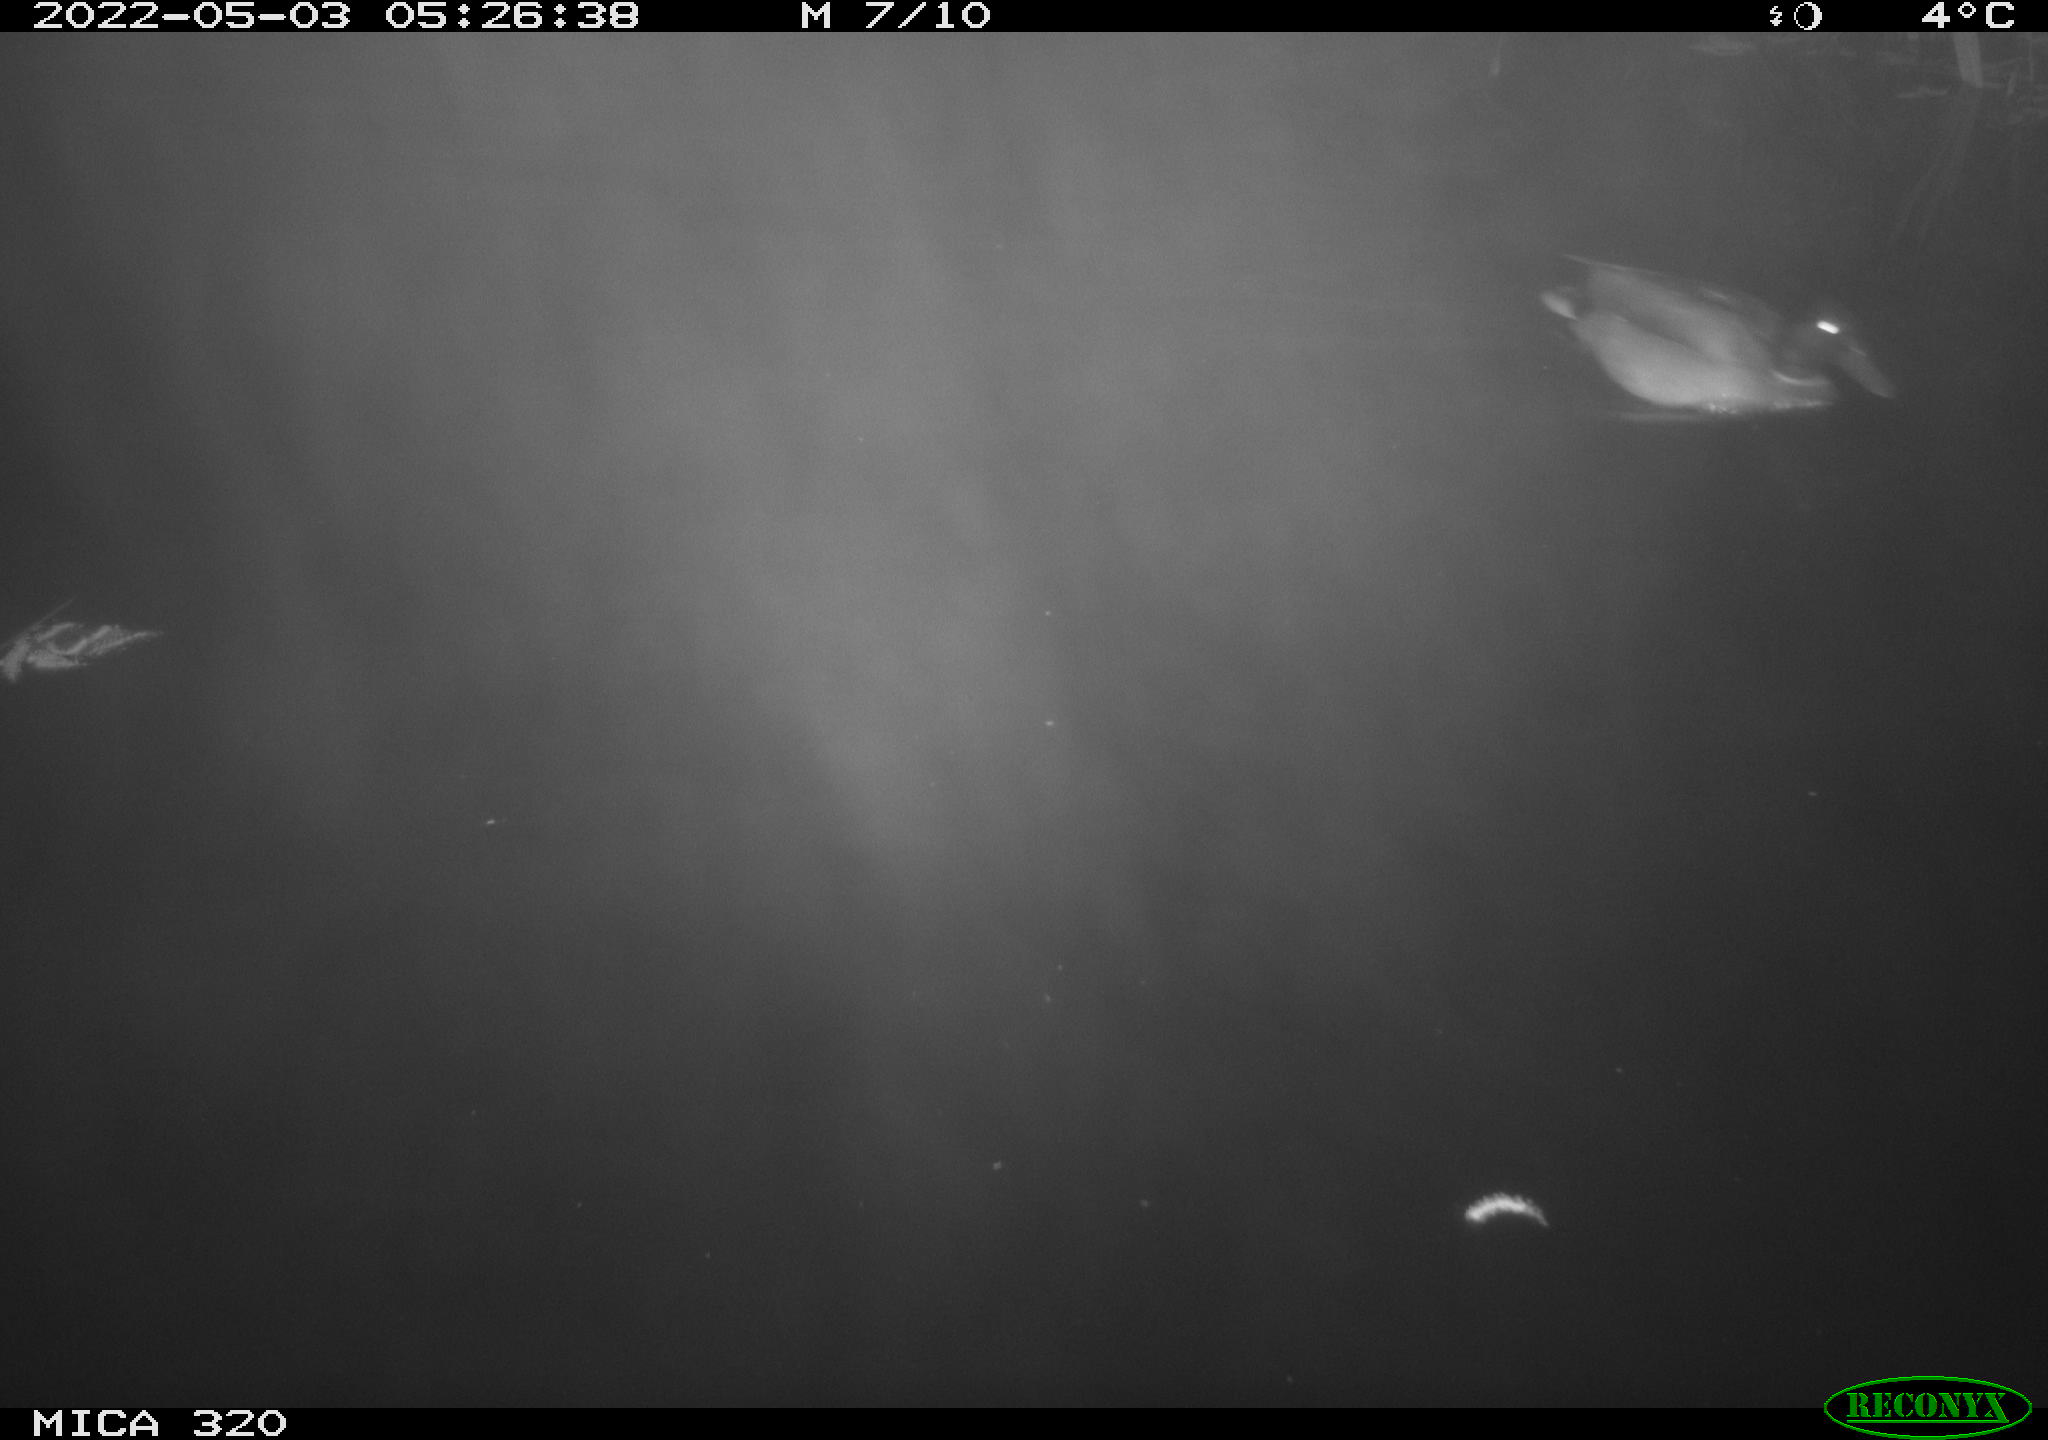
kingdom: Animalia
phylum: Chordata
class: Aves
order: Anseriformes
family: Anatidae
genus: Anas
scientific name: Anas platyrhynchos
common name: Mallard
